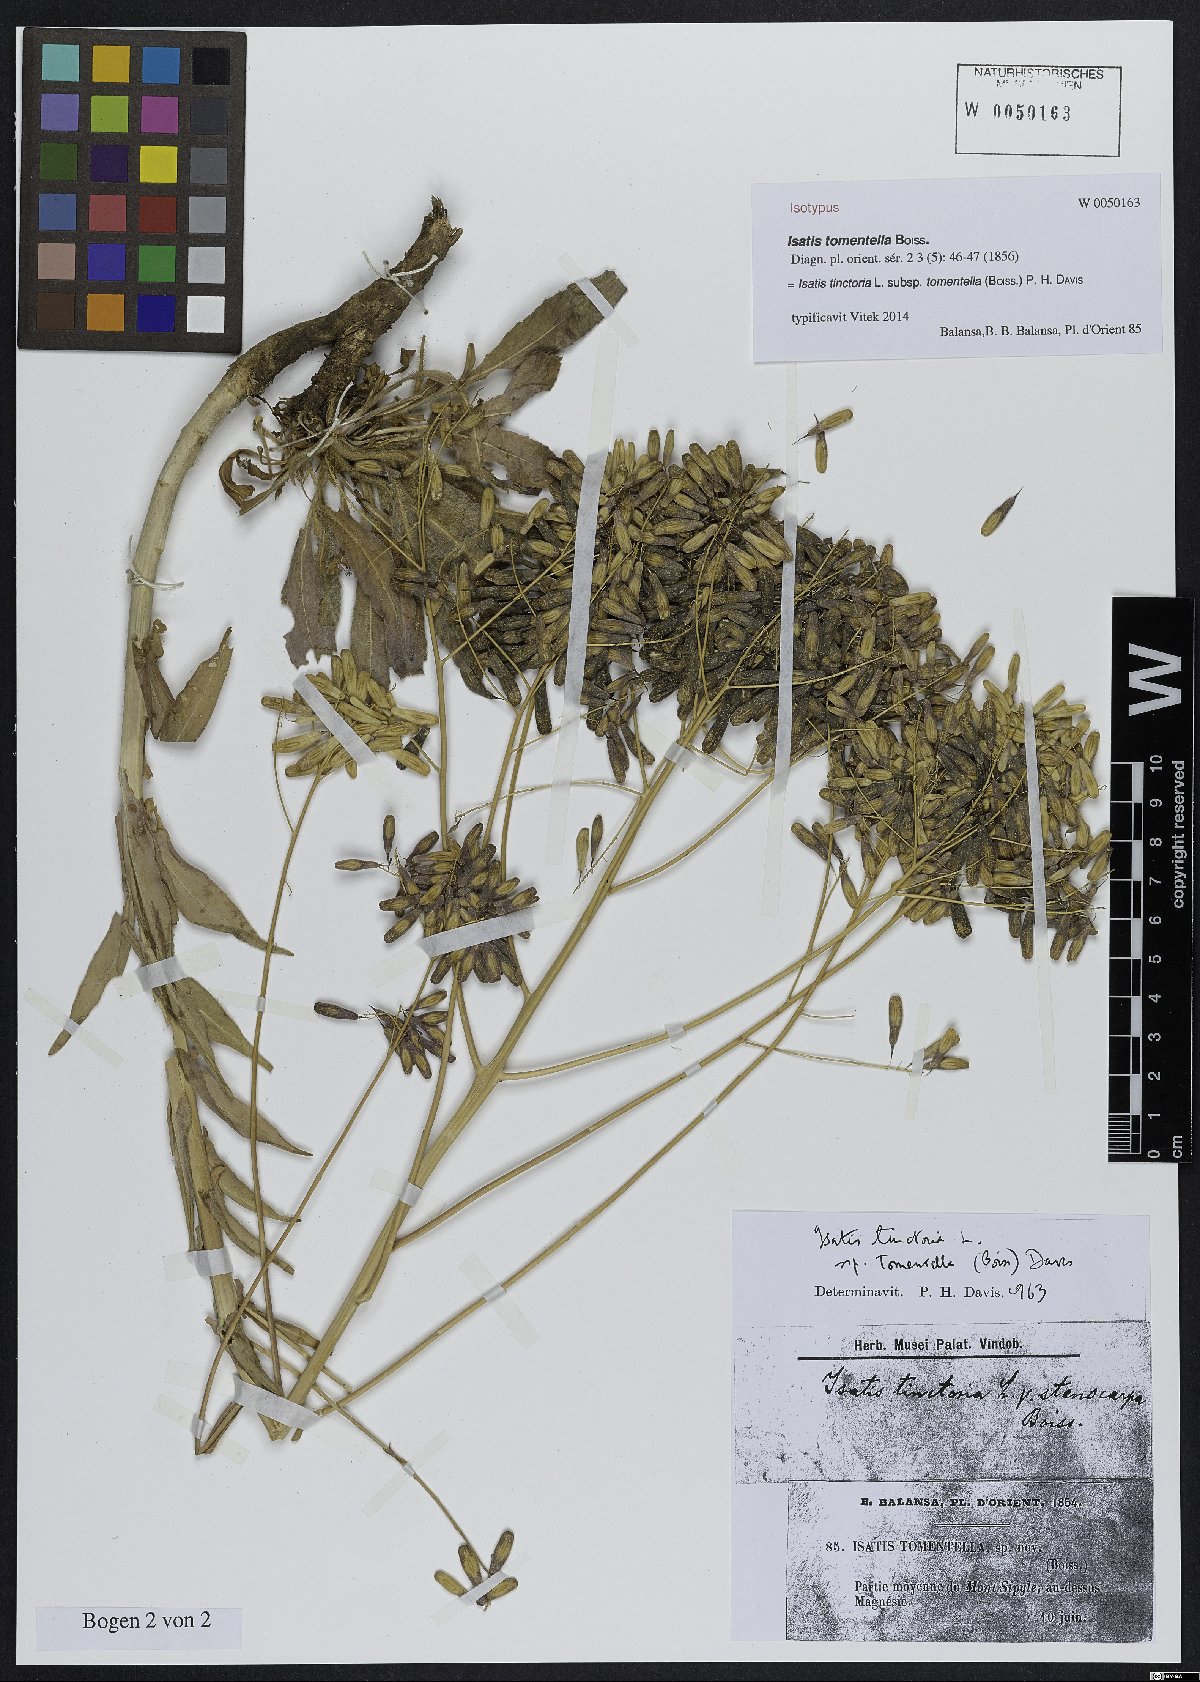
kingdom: Plantae
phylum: Tracheophyta
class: Magnoliopsida
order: Brassicales
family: Brassicaceae
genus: Isatis
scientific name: Isatis tomentella
